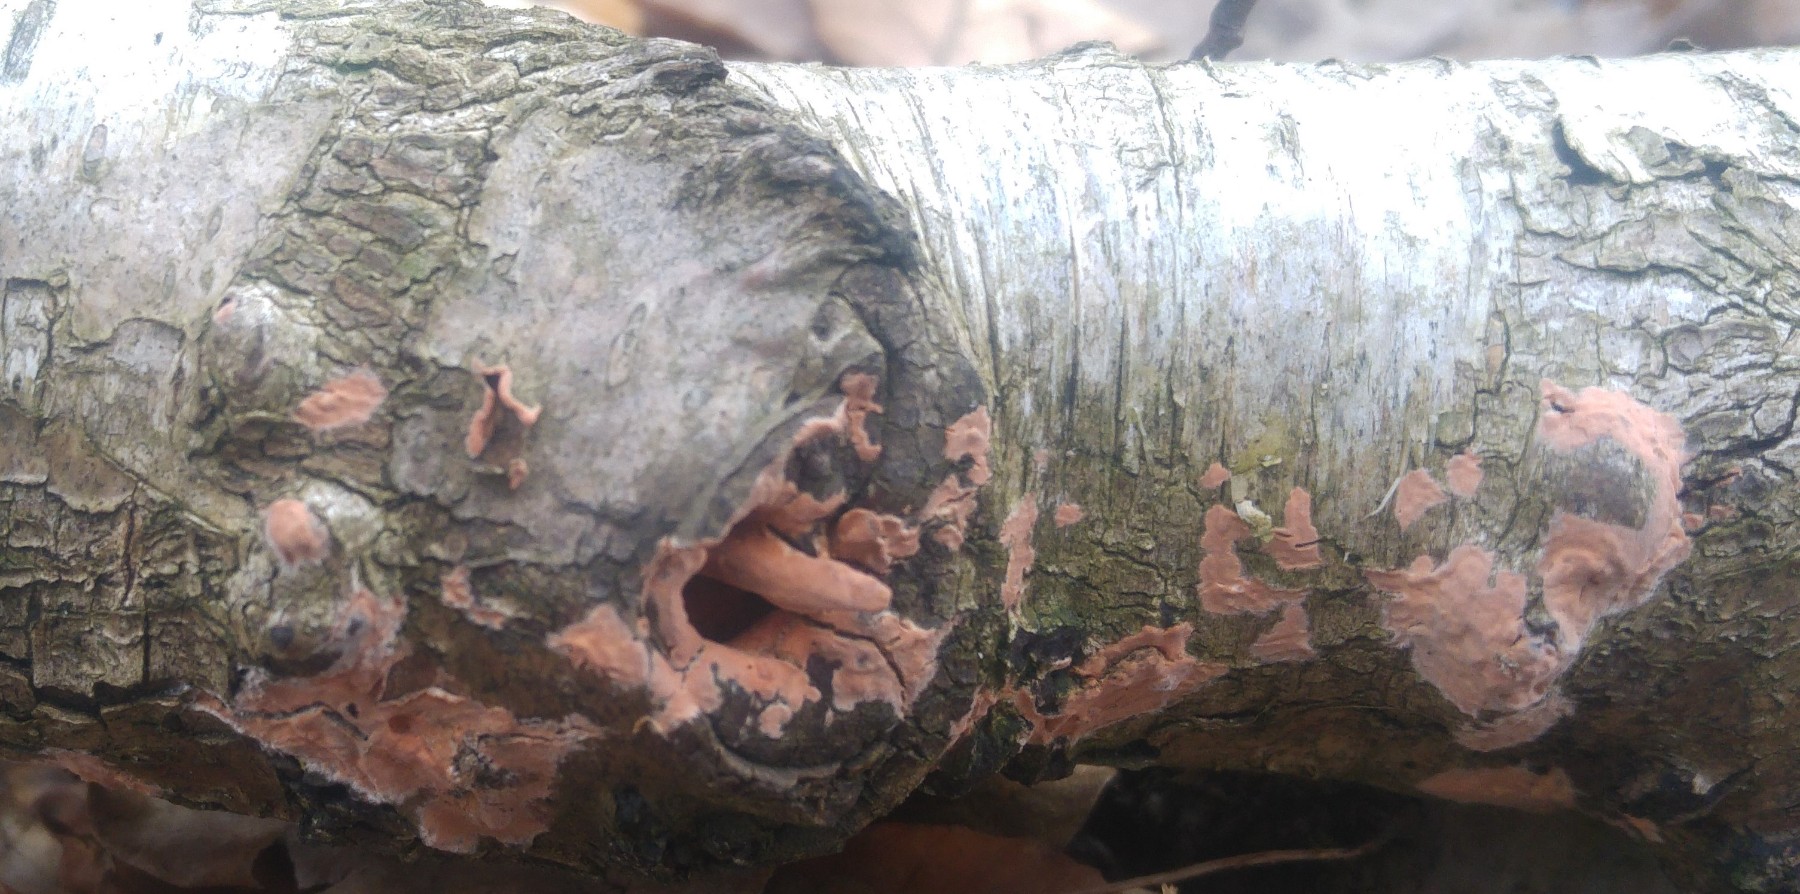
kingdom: Fungi
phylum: Basidiomycota
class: Agaricomycetes
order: Russulales
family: Peniophoraceae
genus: Peniophora
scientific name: Peniophora incarnata
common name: laksefarvet voksskind
